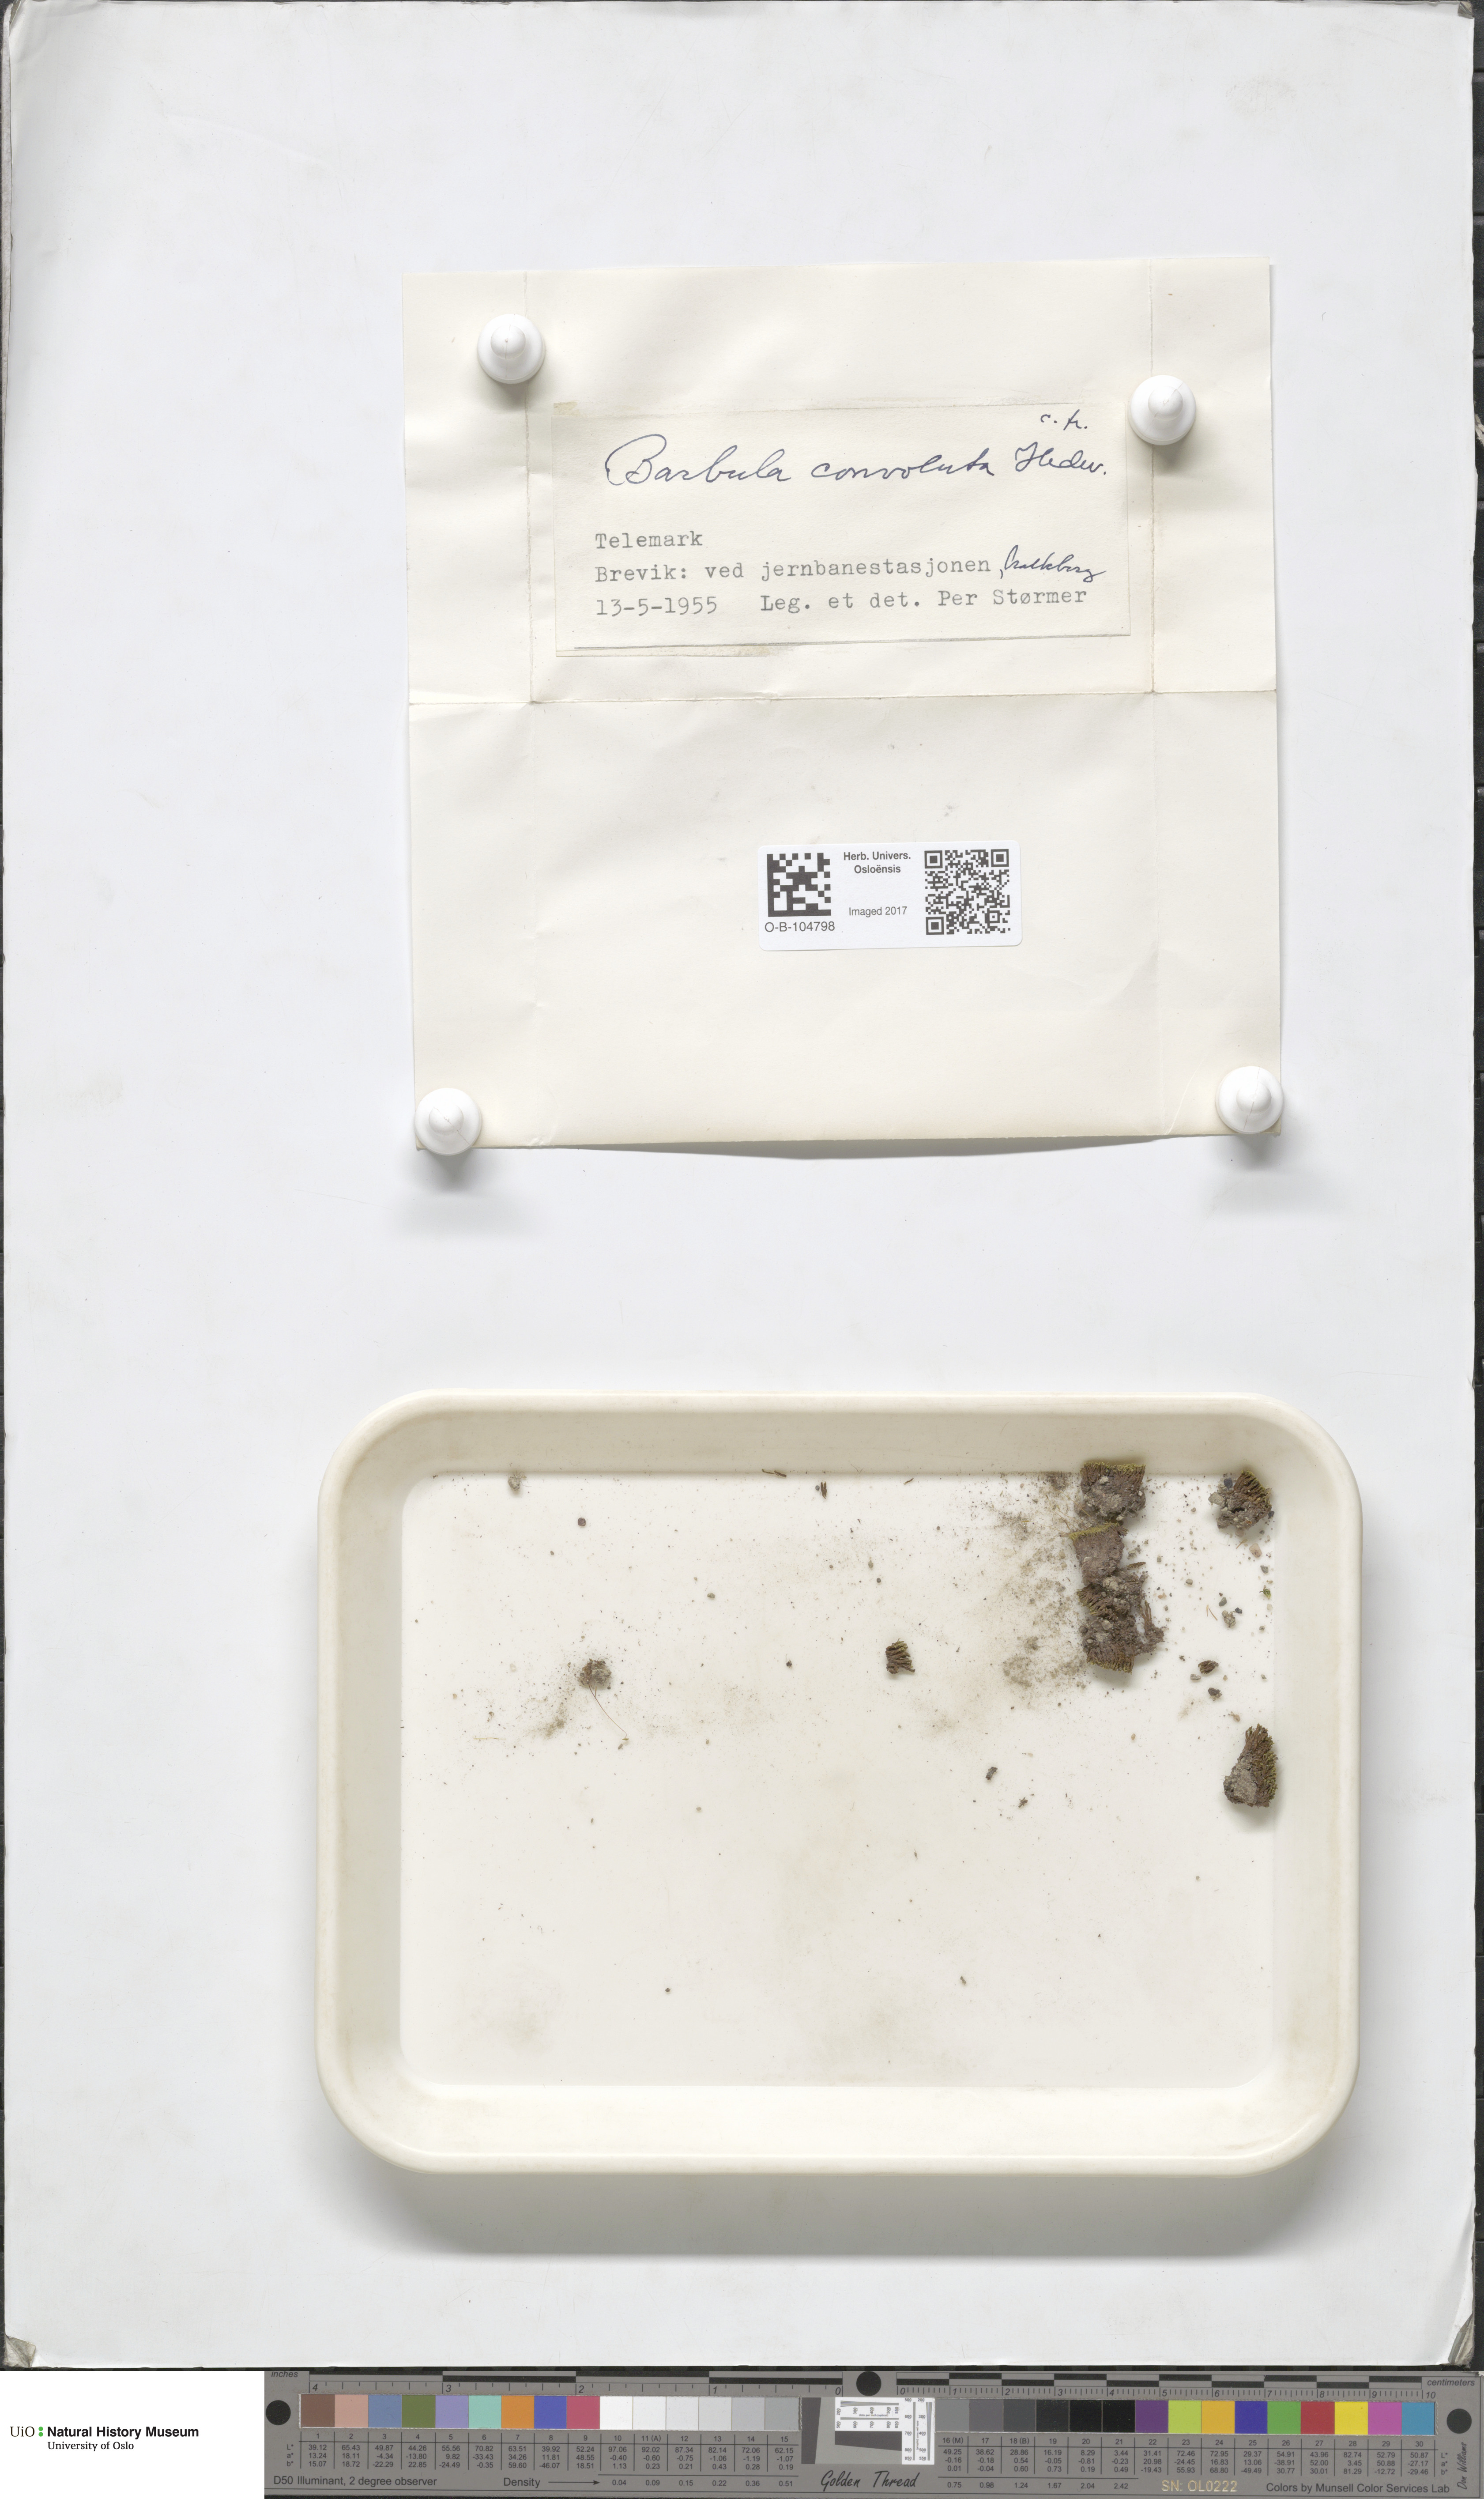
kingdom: Plantae
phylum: Bryophyta
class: Bryopsida
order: Pottiales
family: Pottiaceae
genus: Streblotrichum
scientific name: Streblotrichum convolutum
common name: Lesser bird's-claw beard-moss
